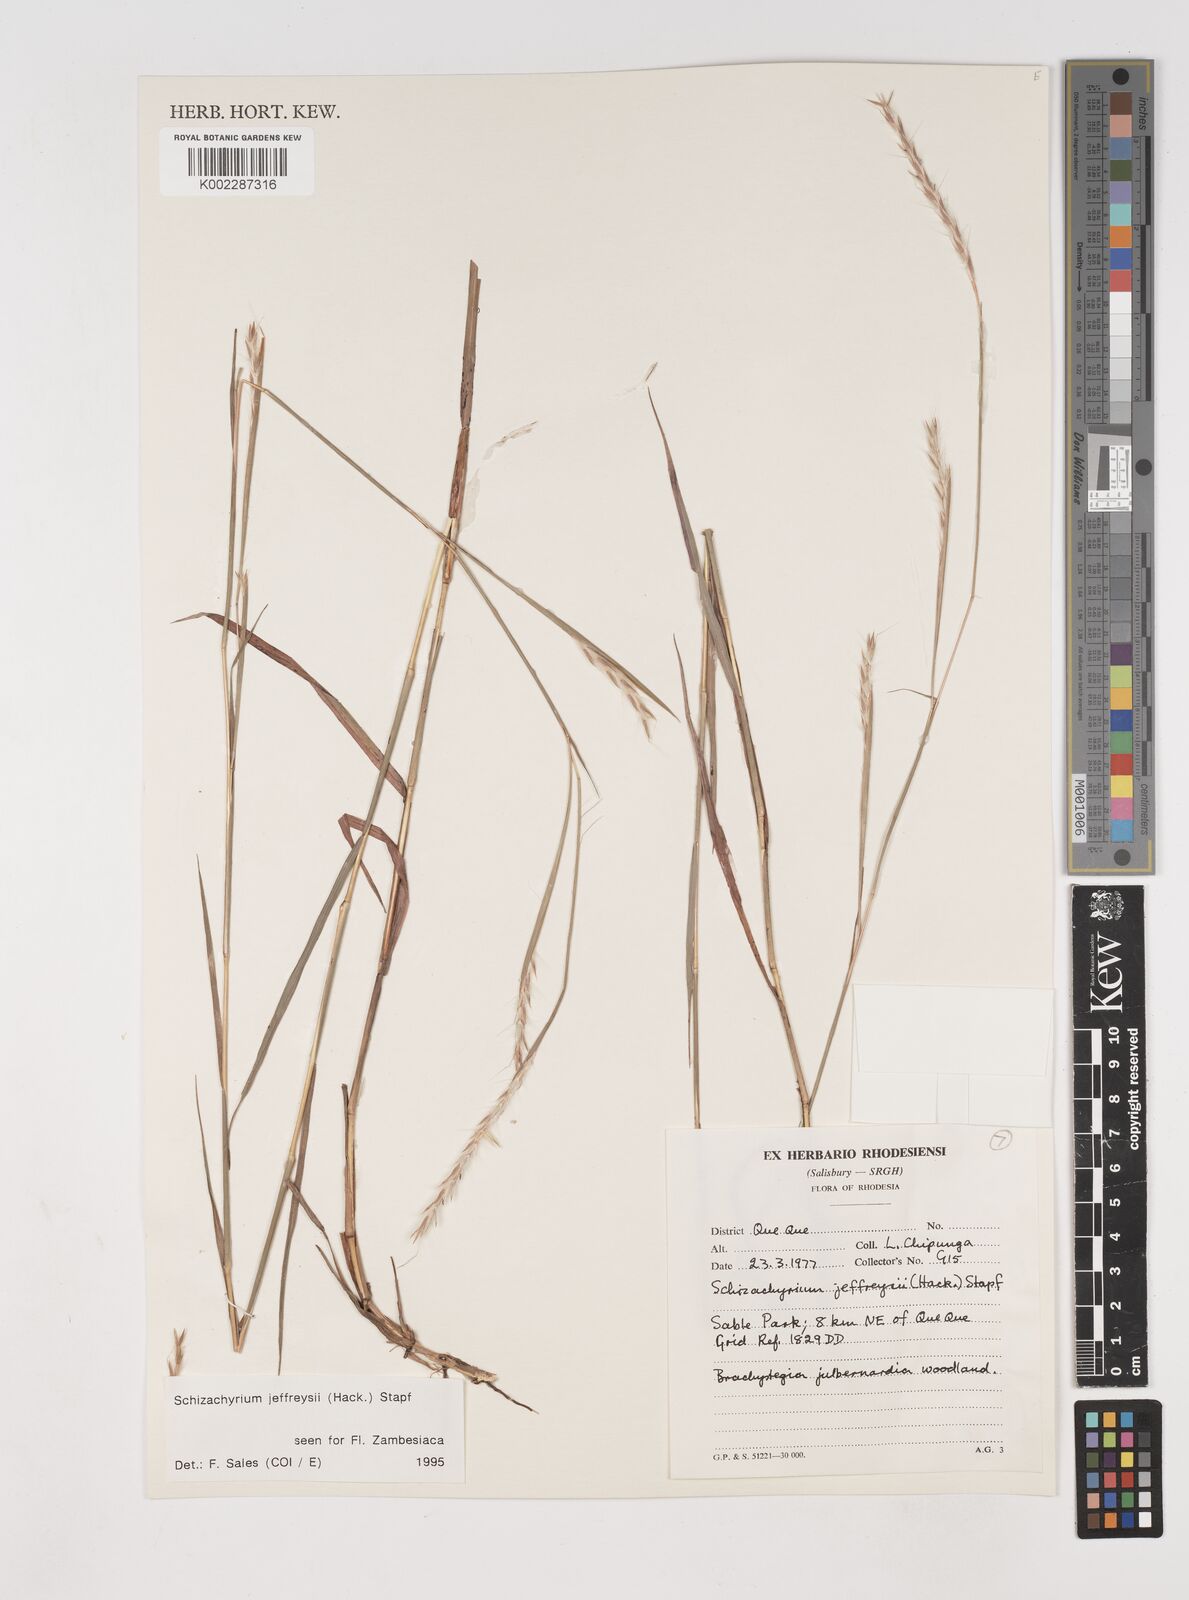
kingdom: Plantae
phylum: Tracheophyta
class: Liliopsida
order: Poales
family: Poaceae
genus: Schizachyrium
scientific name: Schizachyrium jeffreysii
